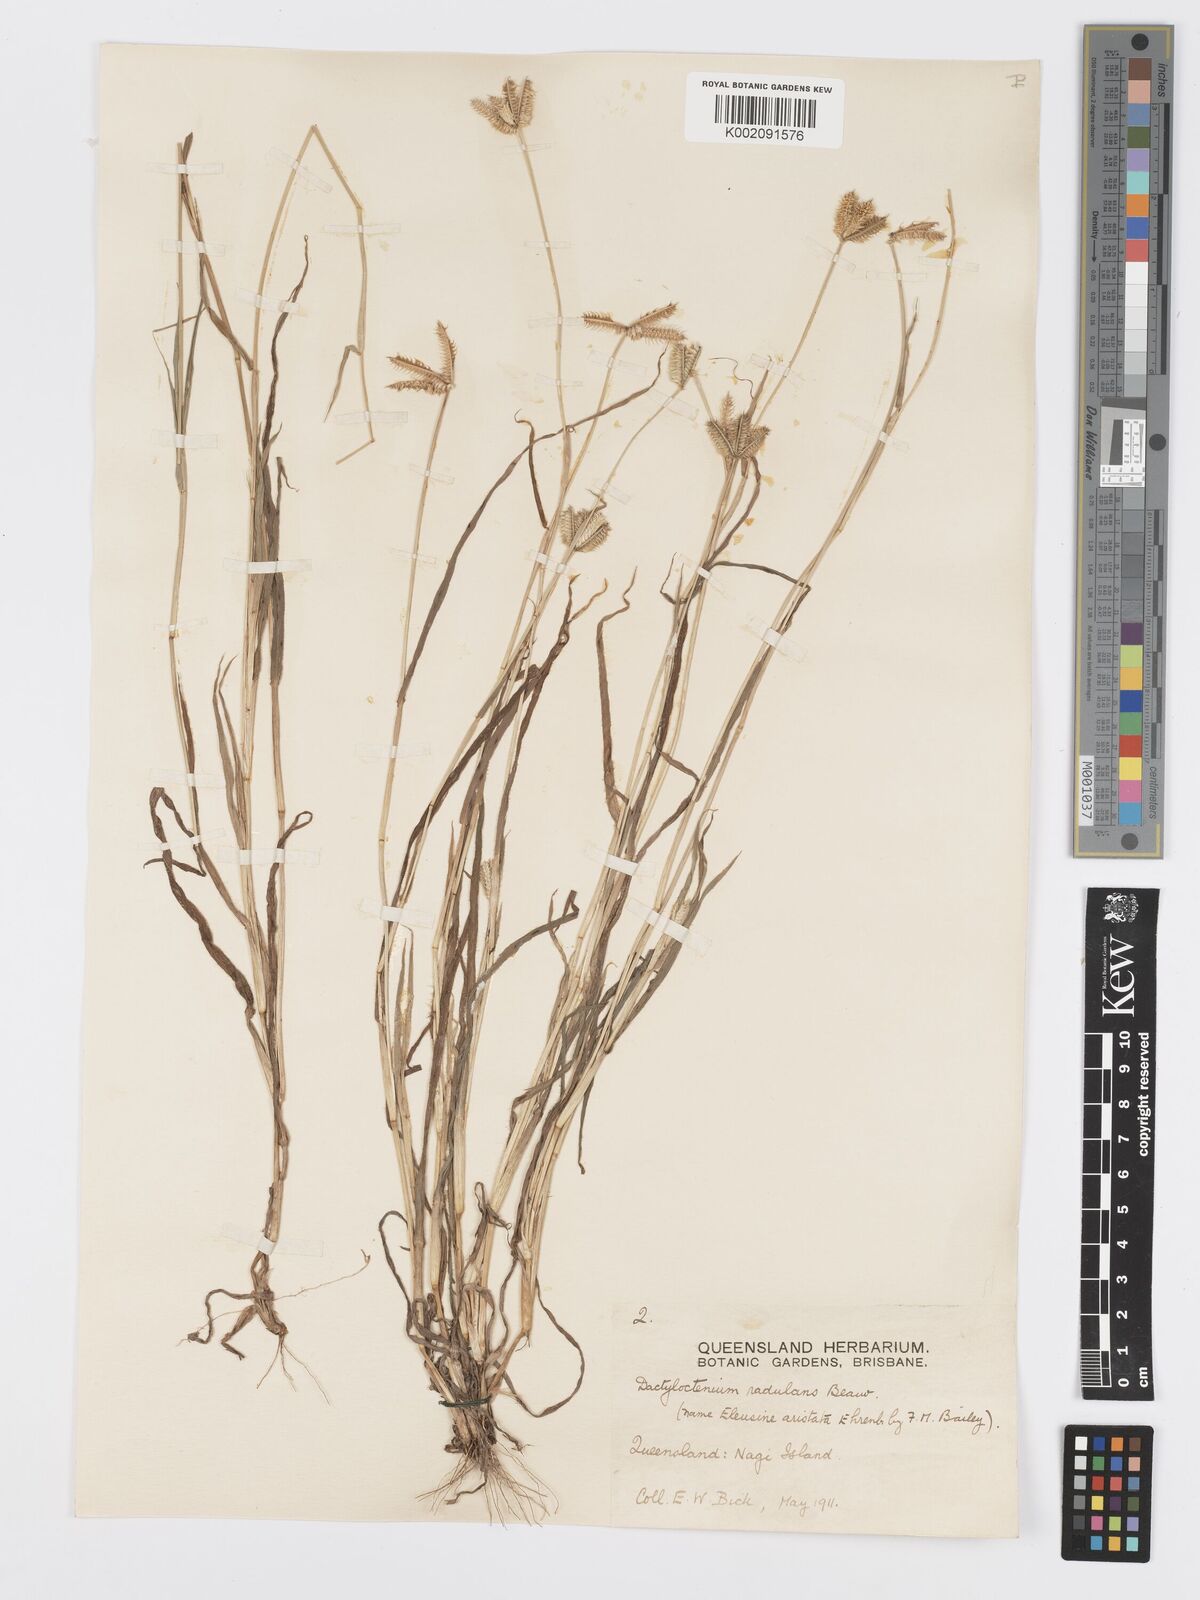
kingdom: Plantae
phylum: Tracheophyta
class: Liliopsida
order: Poales
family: Poaceae
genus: Dactyloctenium
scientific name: Dactyloctenium radulans
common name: Button-grass
